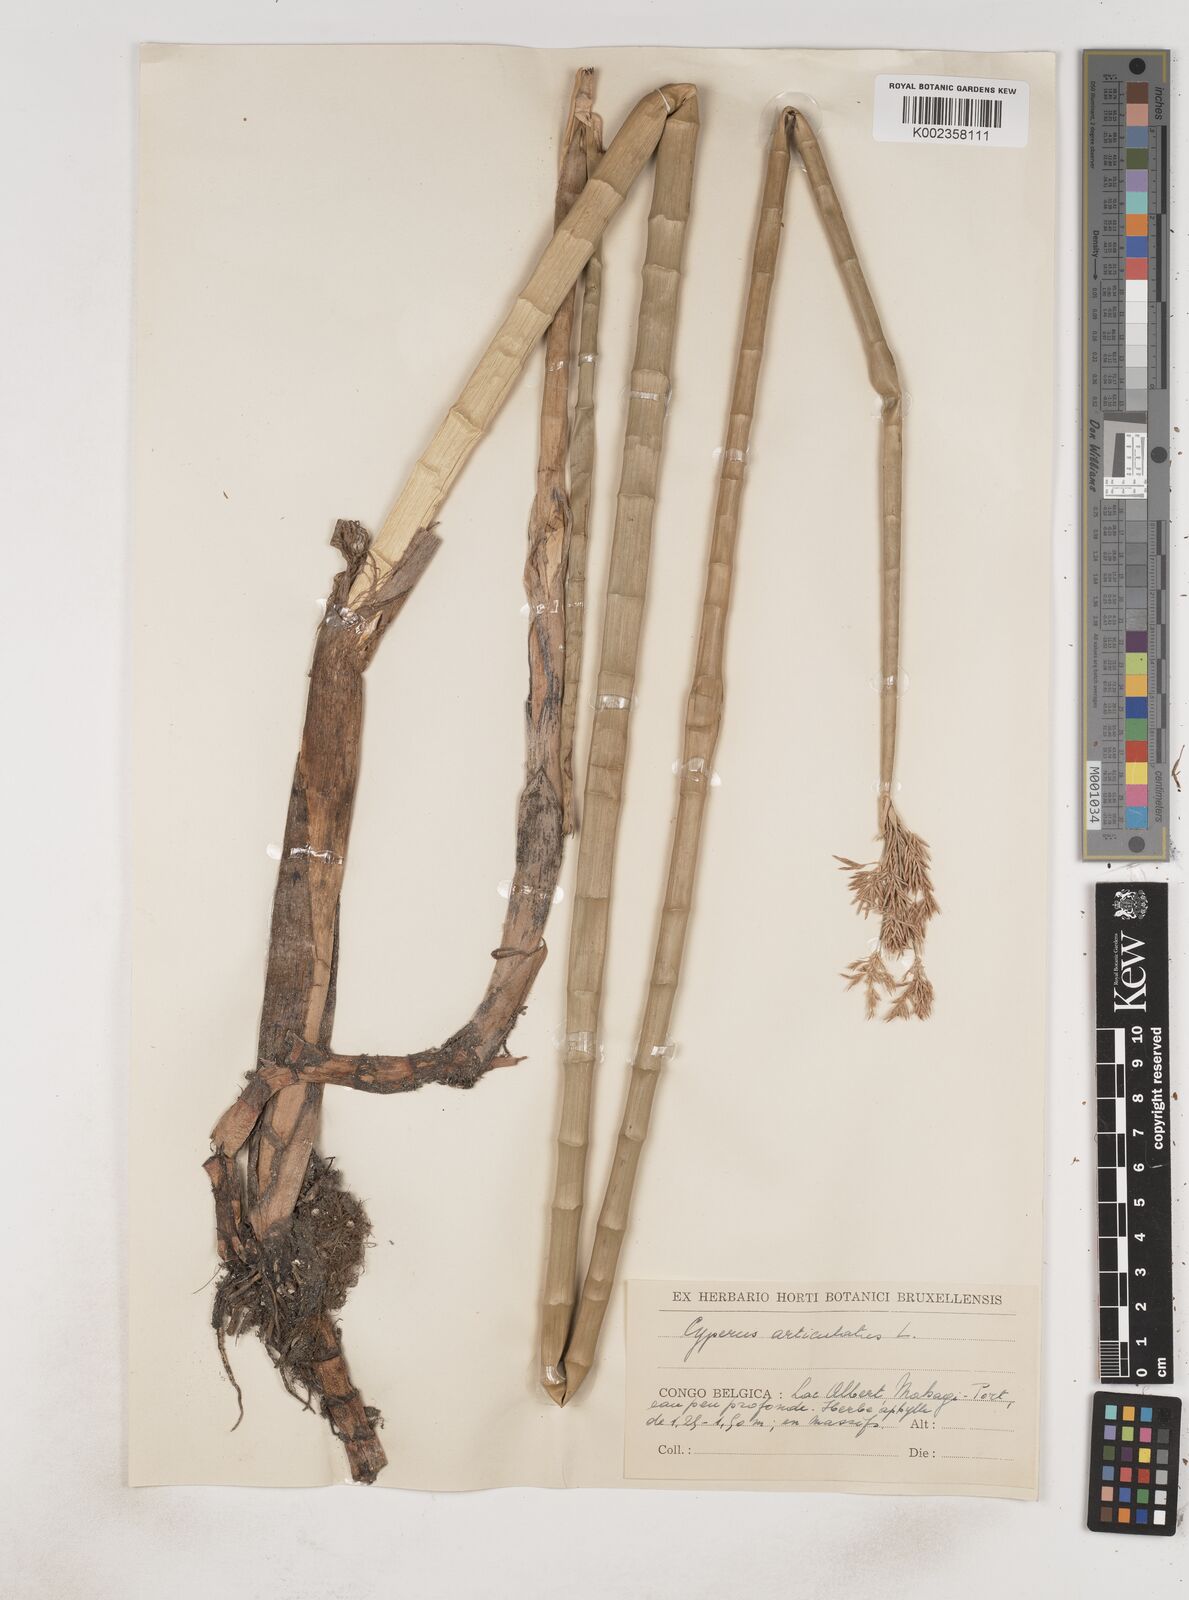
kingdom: Plantae
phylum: Tracheophyta
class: Liliopsida
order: Poales
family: Cyperaceae
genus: Cyperus
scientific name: Cyperus articulatus
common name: Jointed flatsedge
